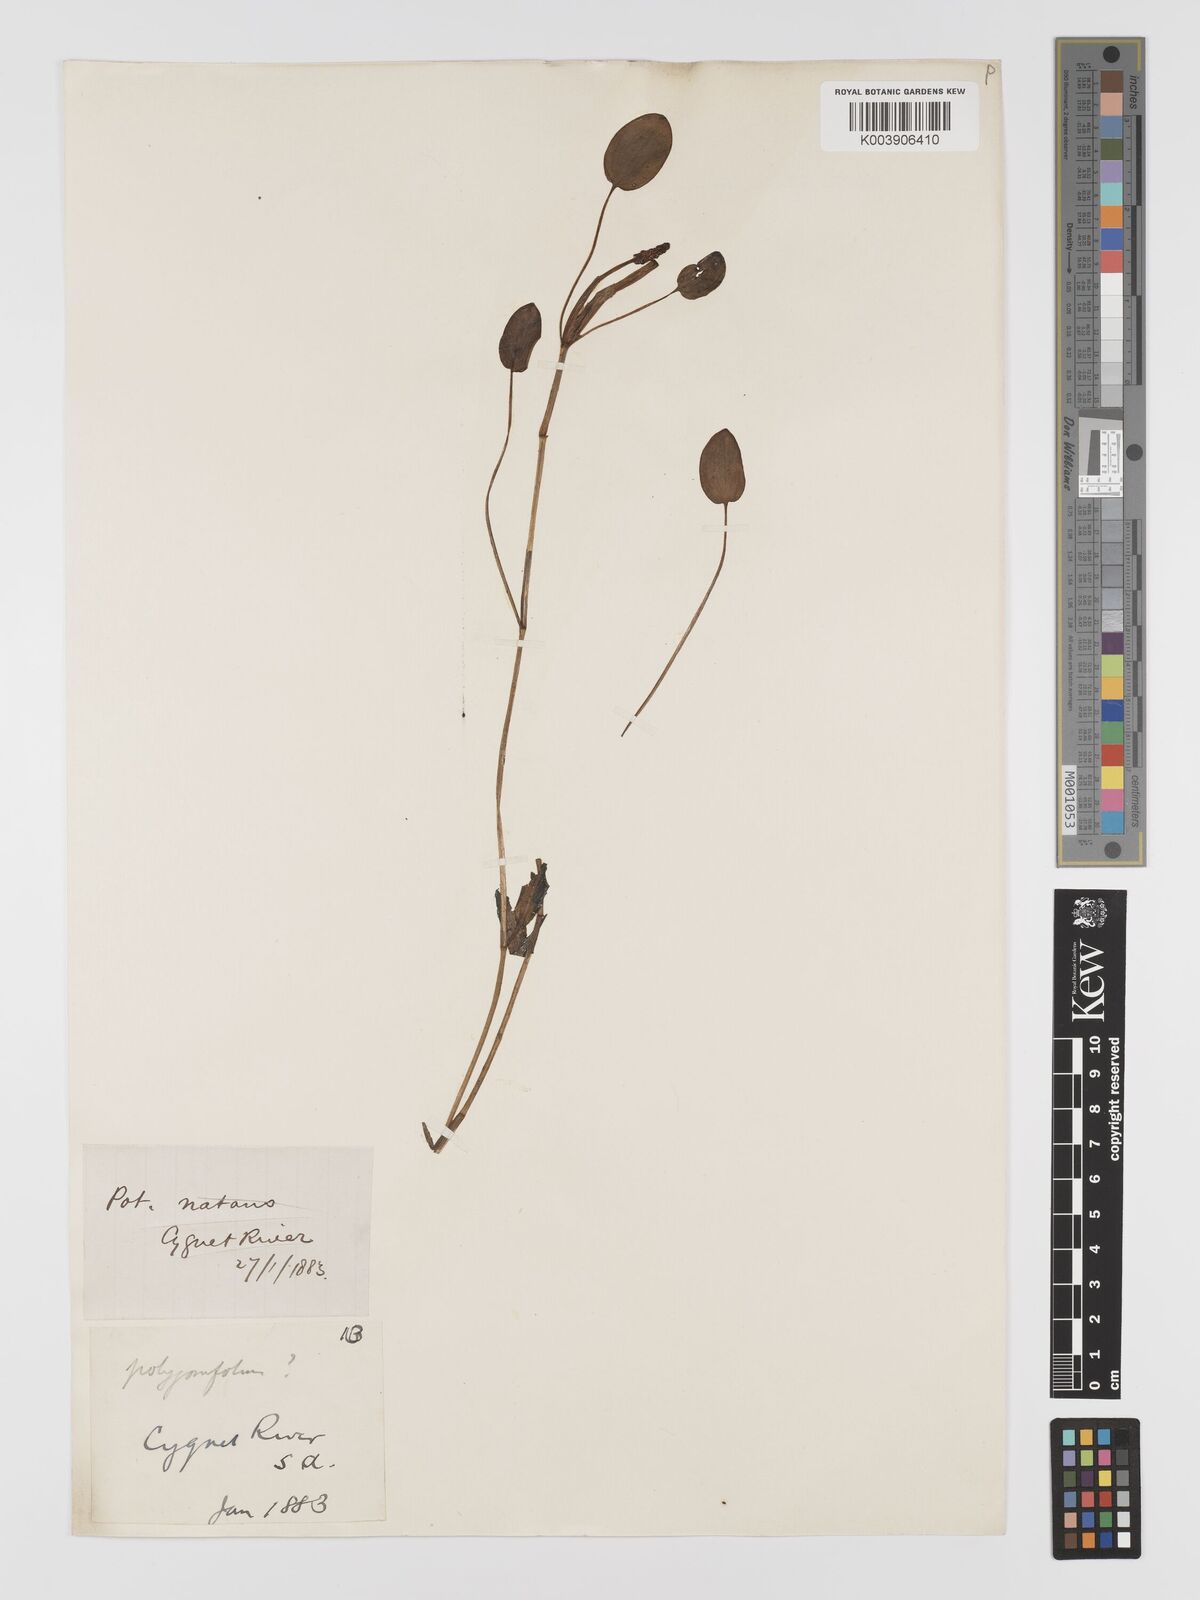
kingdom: Plantae
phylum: Tracheophyta
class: Liliopsida
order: Alismatales
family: Potamogetonaceae
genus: Potamogeton
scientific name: Potamogeton
